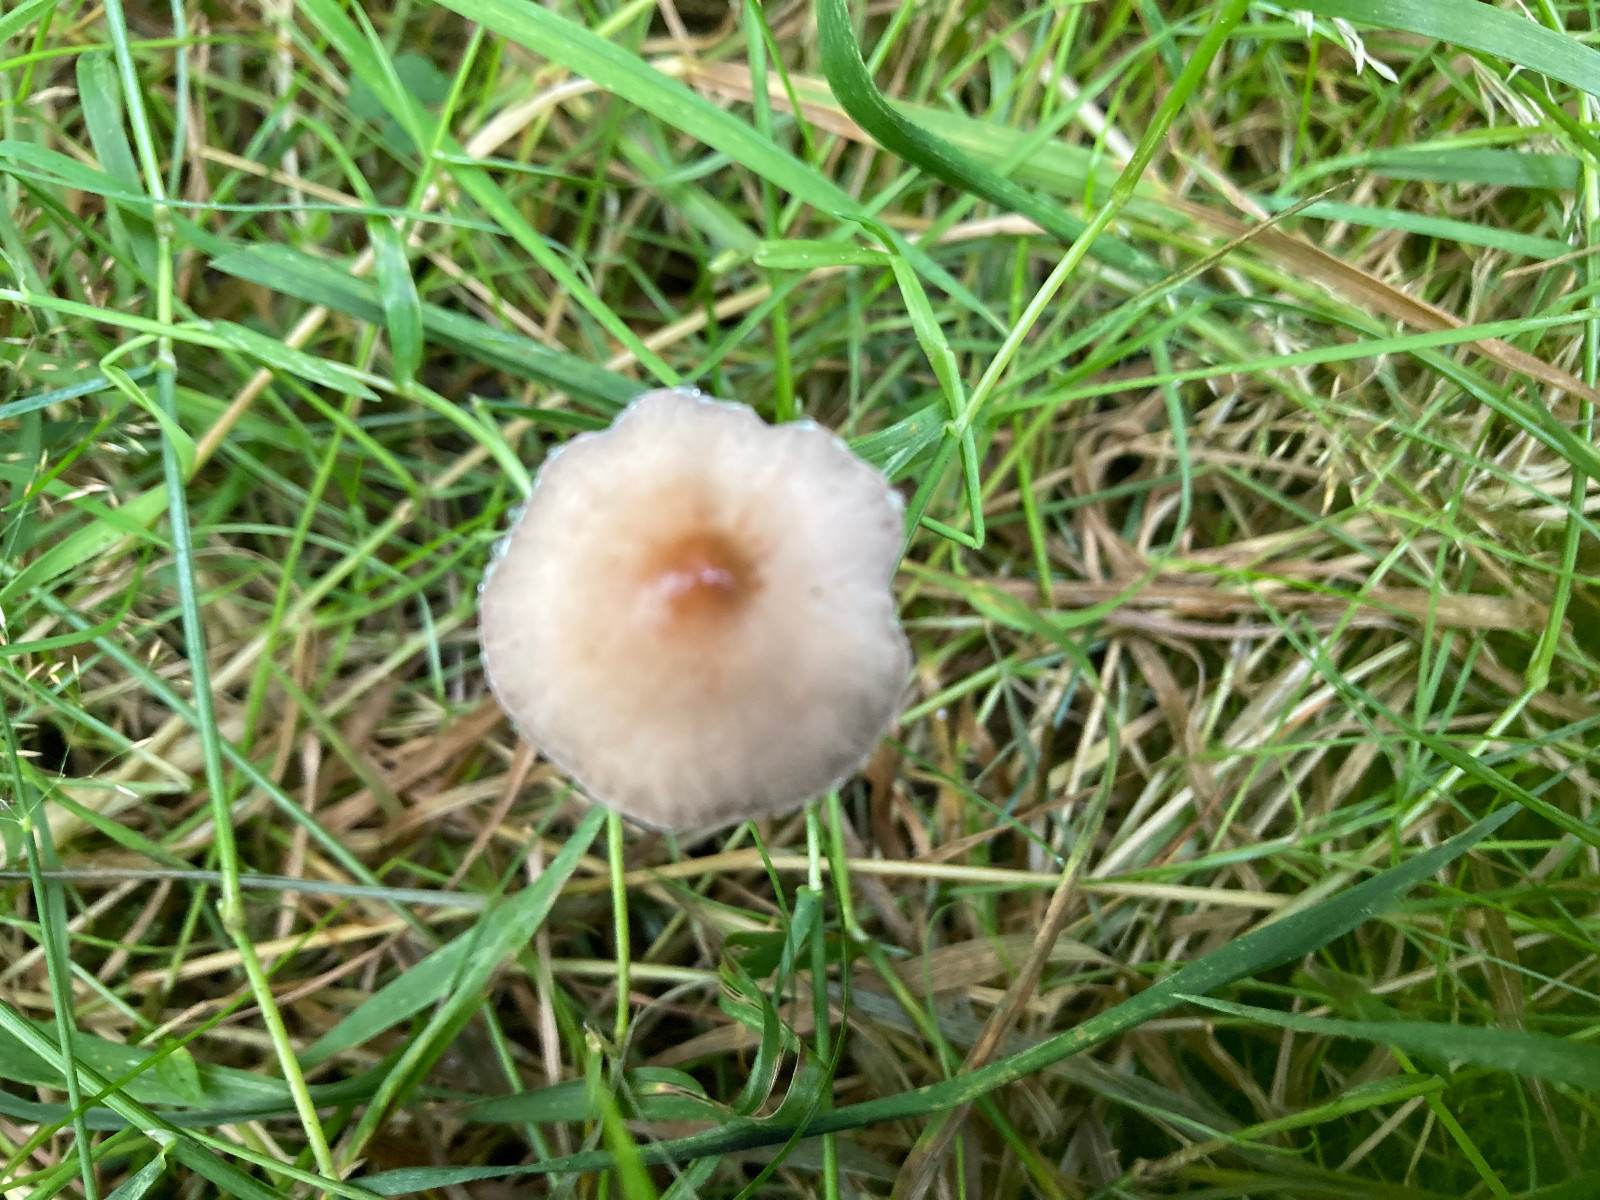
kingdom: Fungi
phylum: Basidiomycota
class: Agaricomycetes
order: Agaricales
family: Bolbitiaceae
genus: Panaeolus
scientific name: Panaeolus
